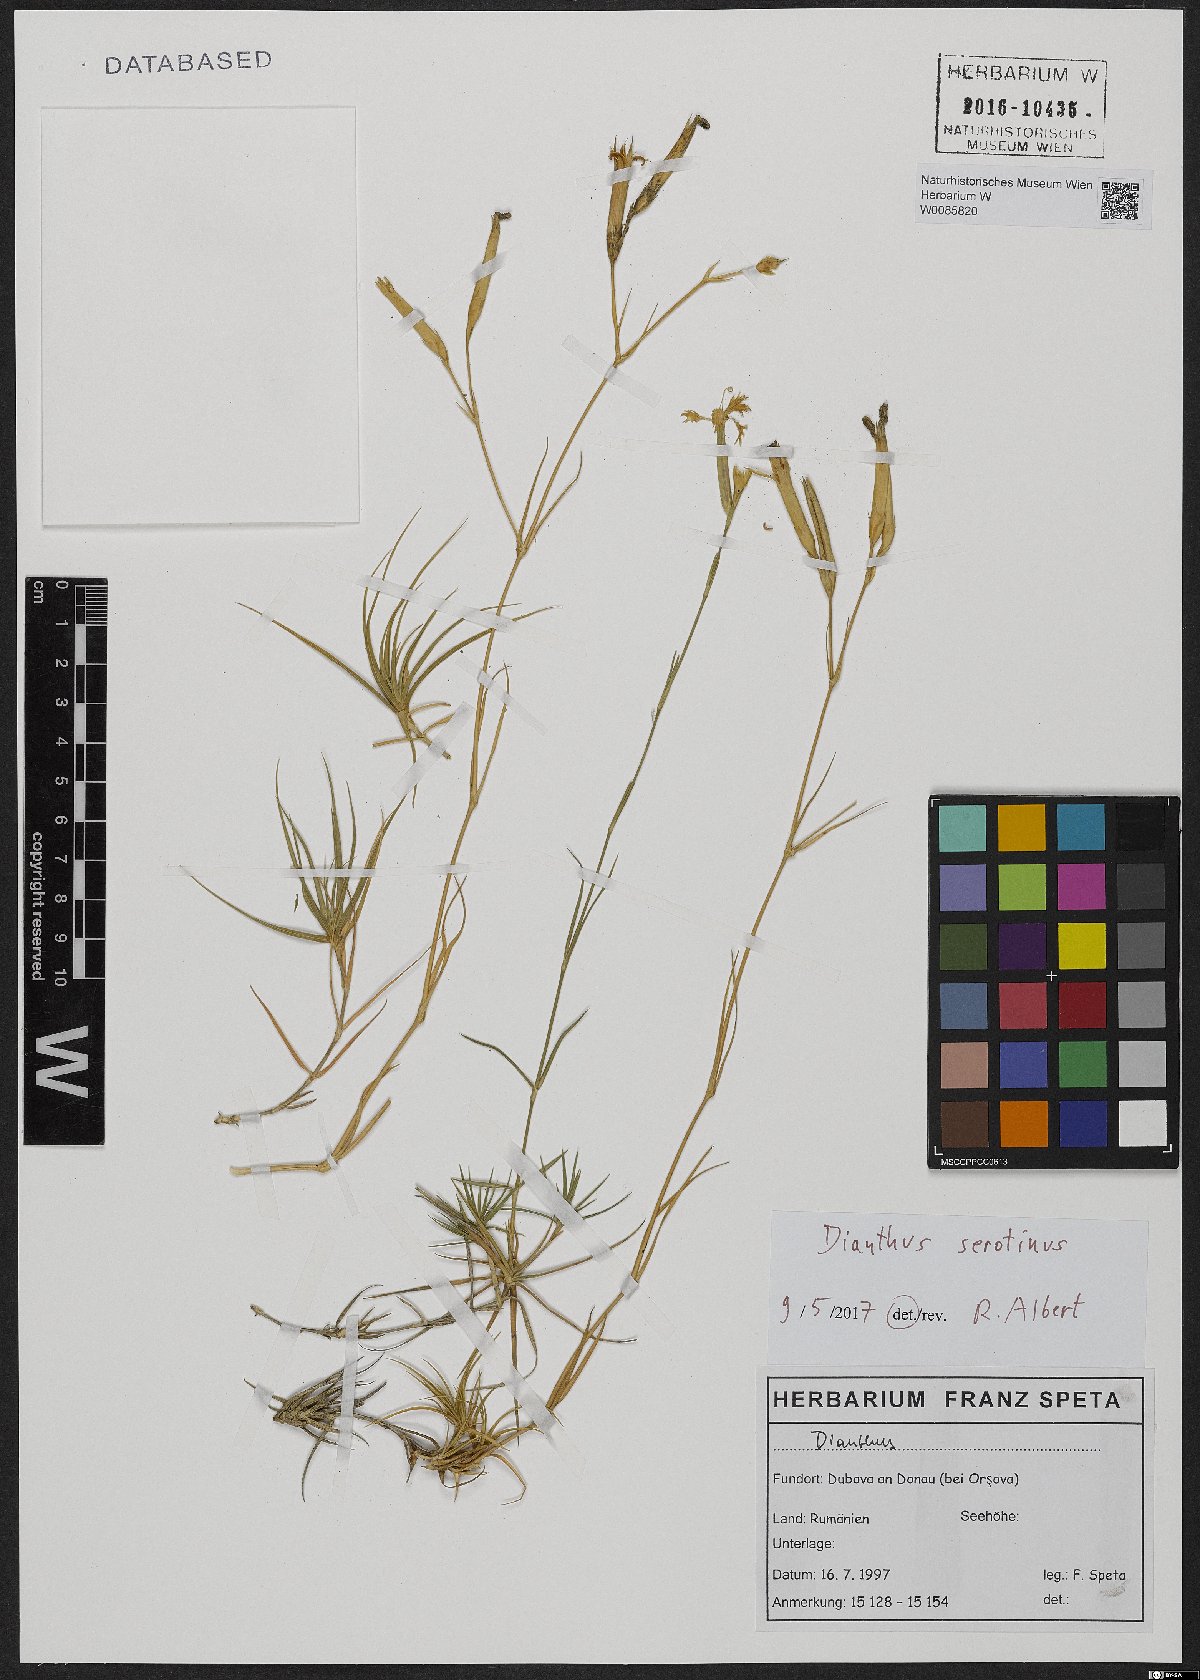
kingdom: Plantae
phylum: Tracheophyta
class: Magnoliopsida
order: Caryophyllales
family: Caryophyllaceae
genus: Dianthus
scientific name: Dianthus serotinus
